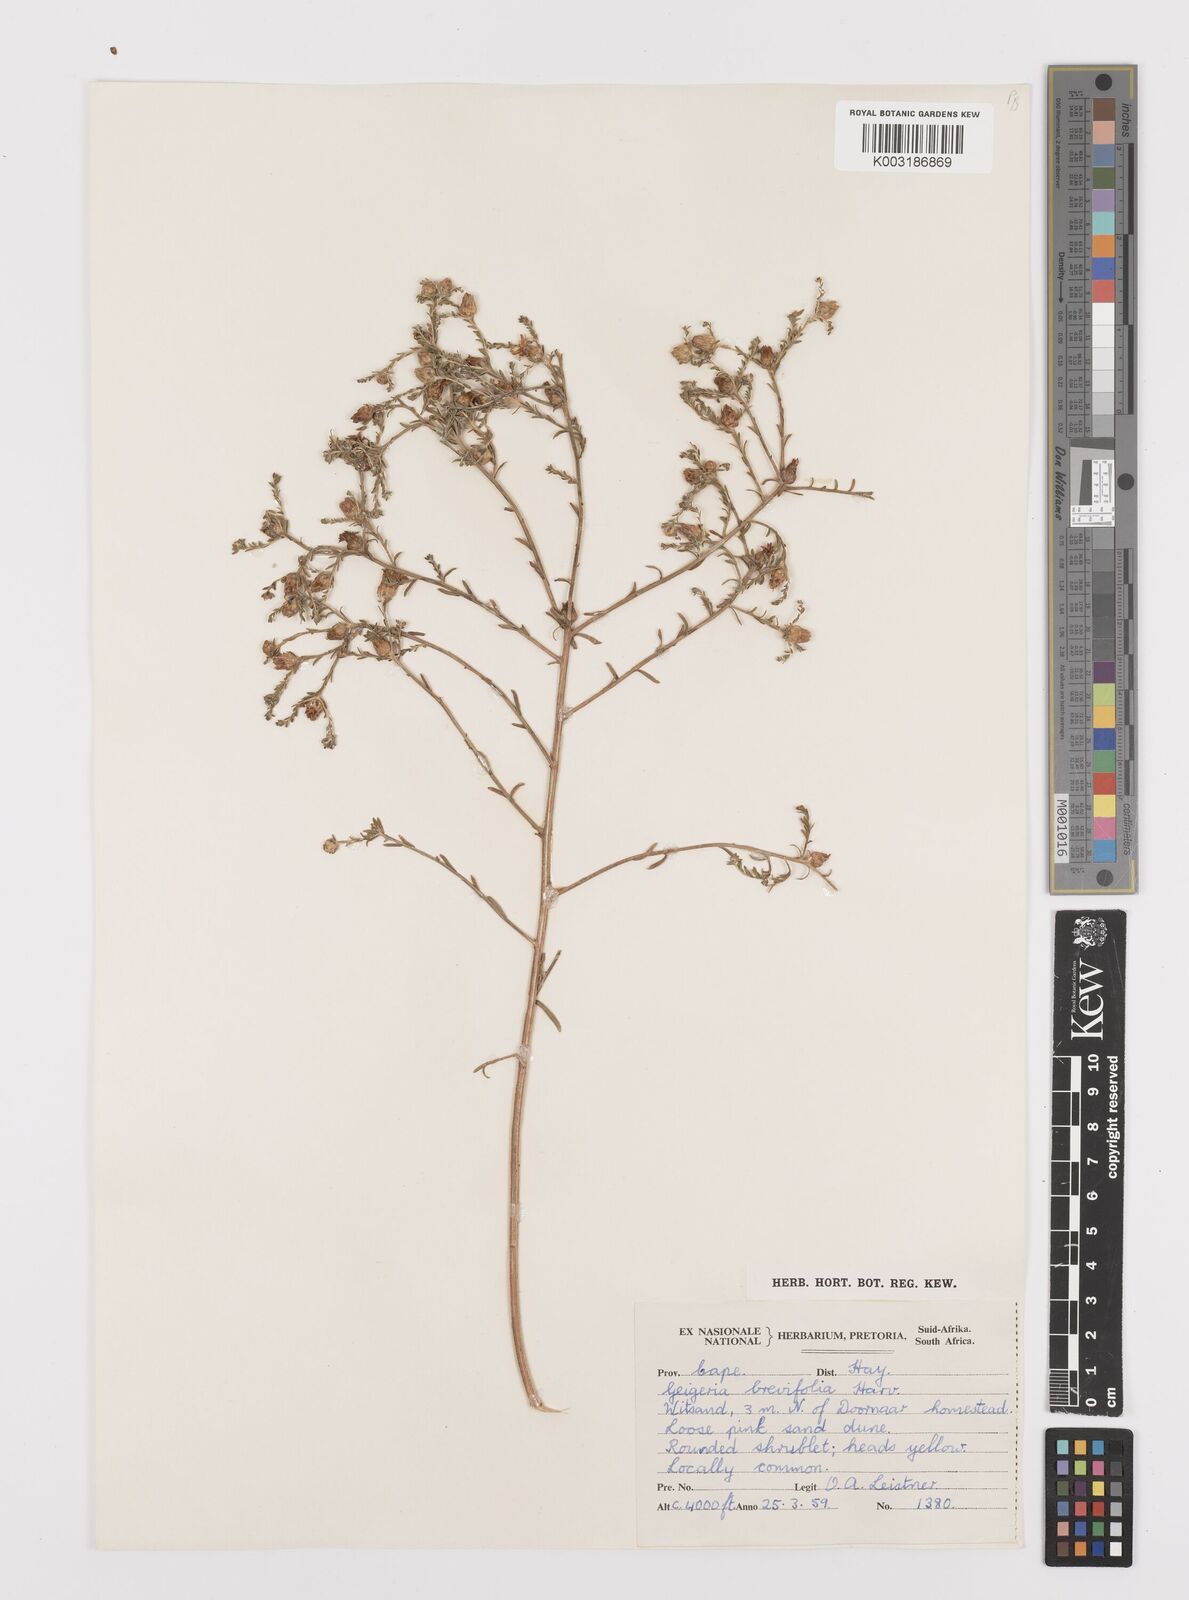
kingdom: Plantae
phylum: Tracheophyta
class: Magnoliopsida
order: Asterales
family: Asteraceae
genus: Geigeria
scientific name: Geigeria brevifolia
